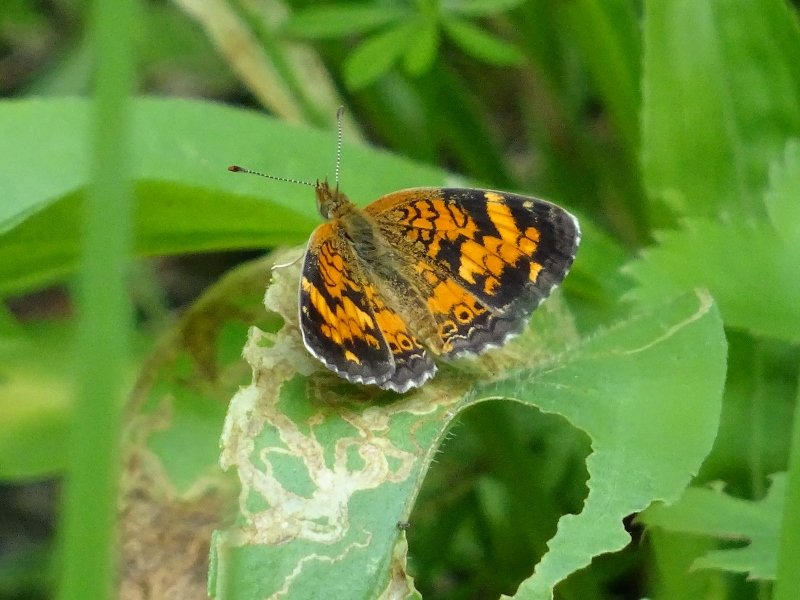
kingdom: Animalia
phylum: Arthropoda
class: Insecta
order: Lepidoptera
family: Nymphalidae
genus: Phyciodes
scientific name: Phyciodes tharos
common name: Pearl Crescent
